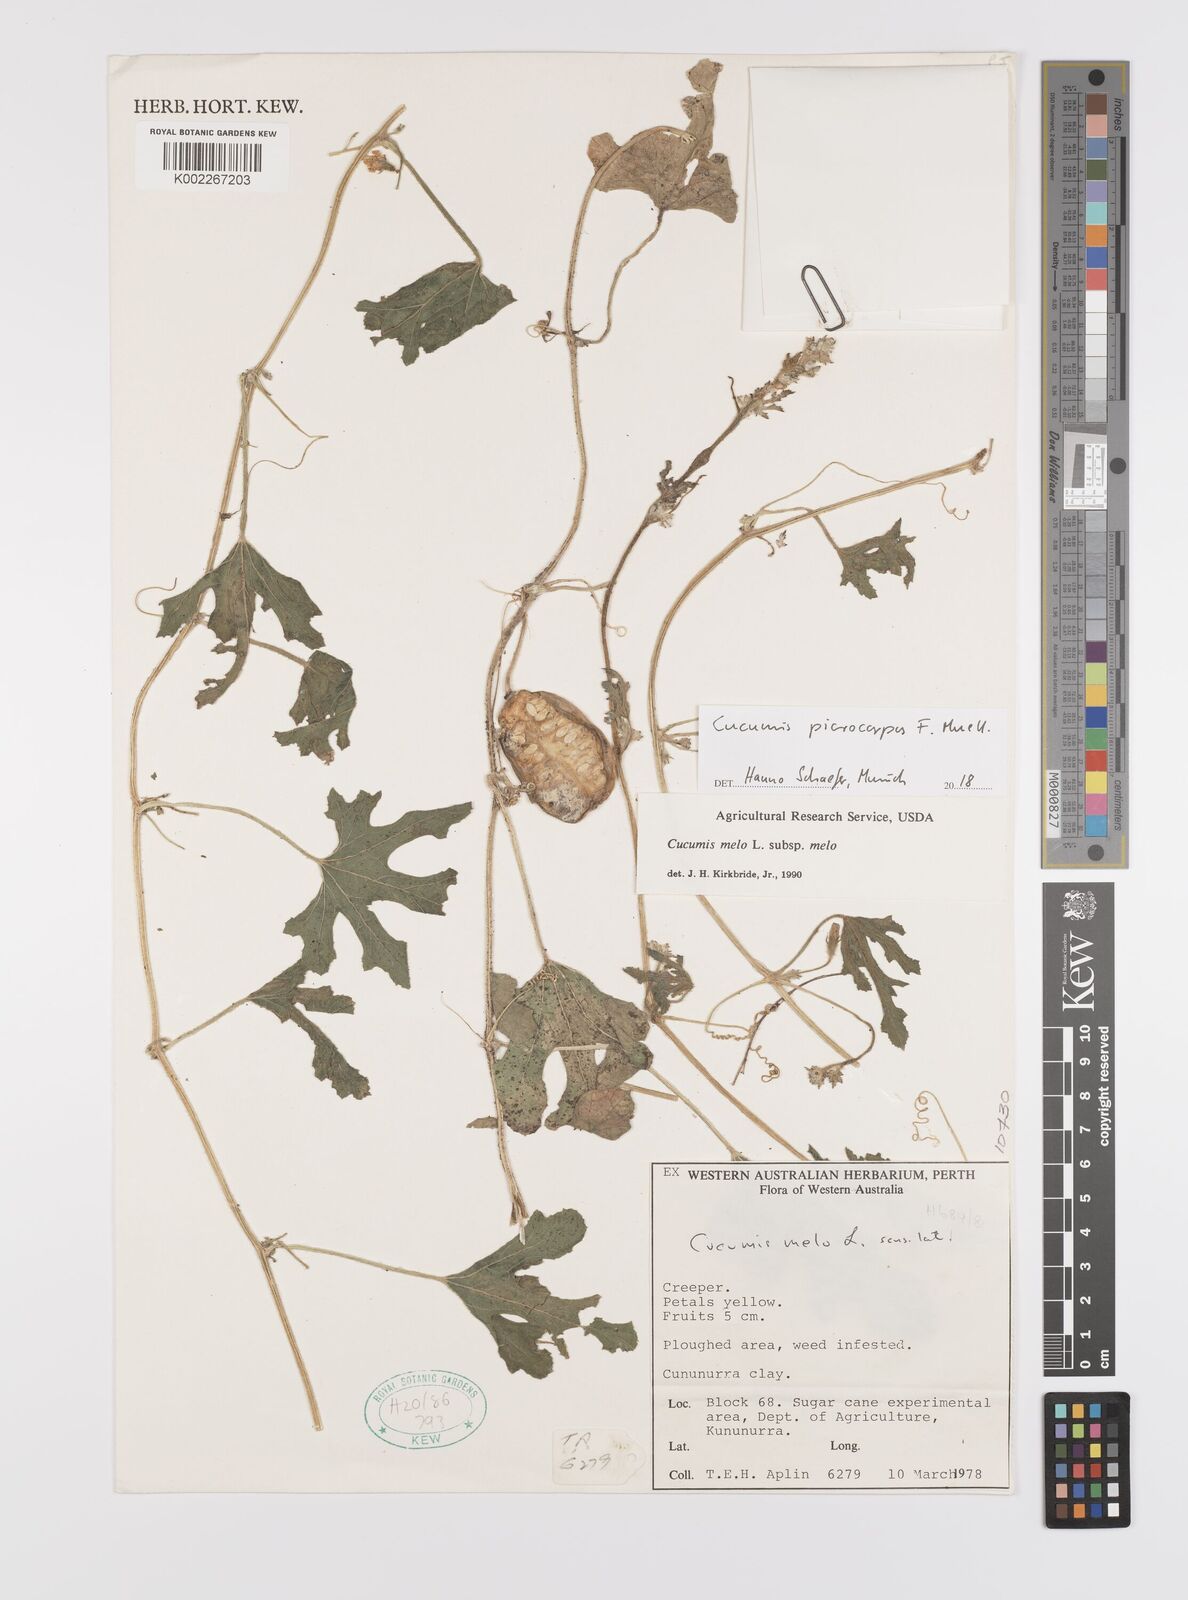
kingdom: Plantae
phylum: Tracheophyta
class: Magnoliopsida
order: Cucurbitales
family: Cucurbitaceae
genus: Cucumis
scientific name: Cucumis picrocarpus
